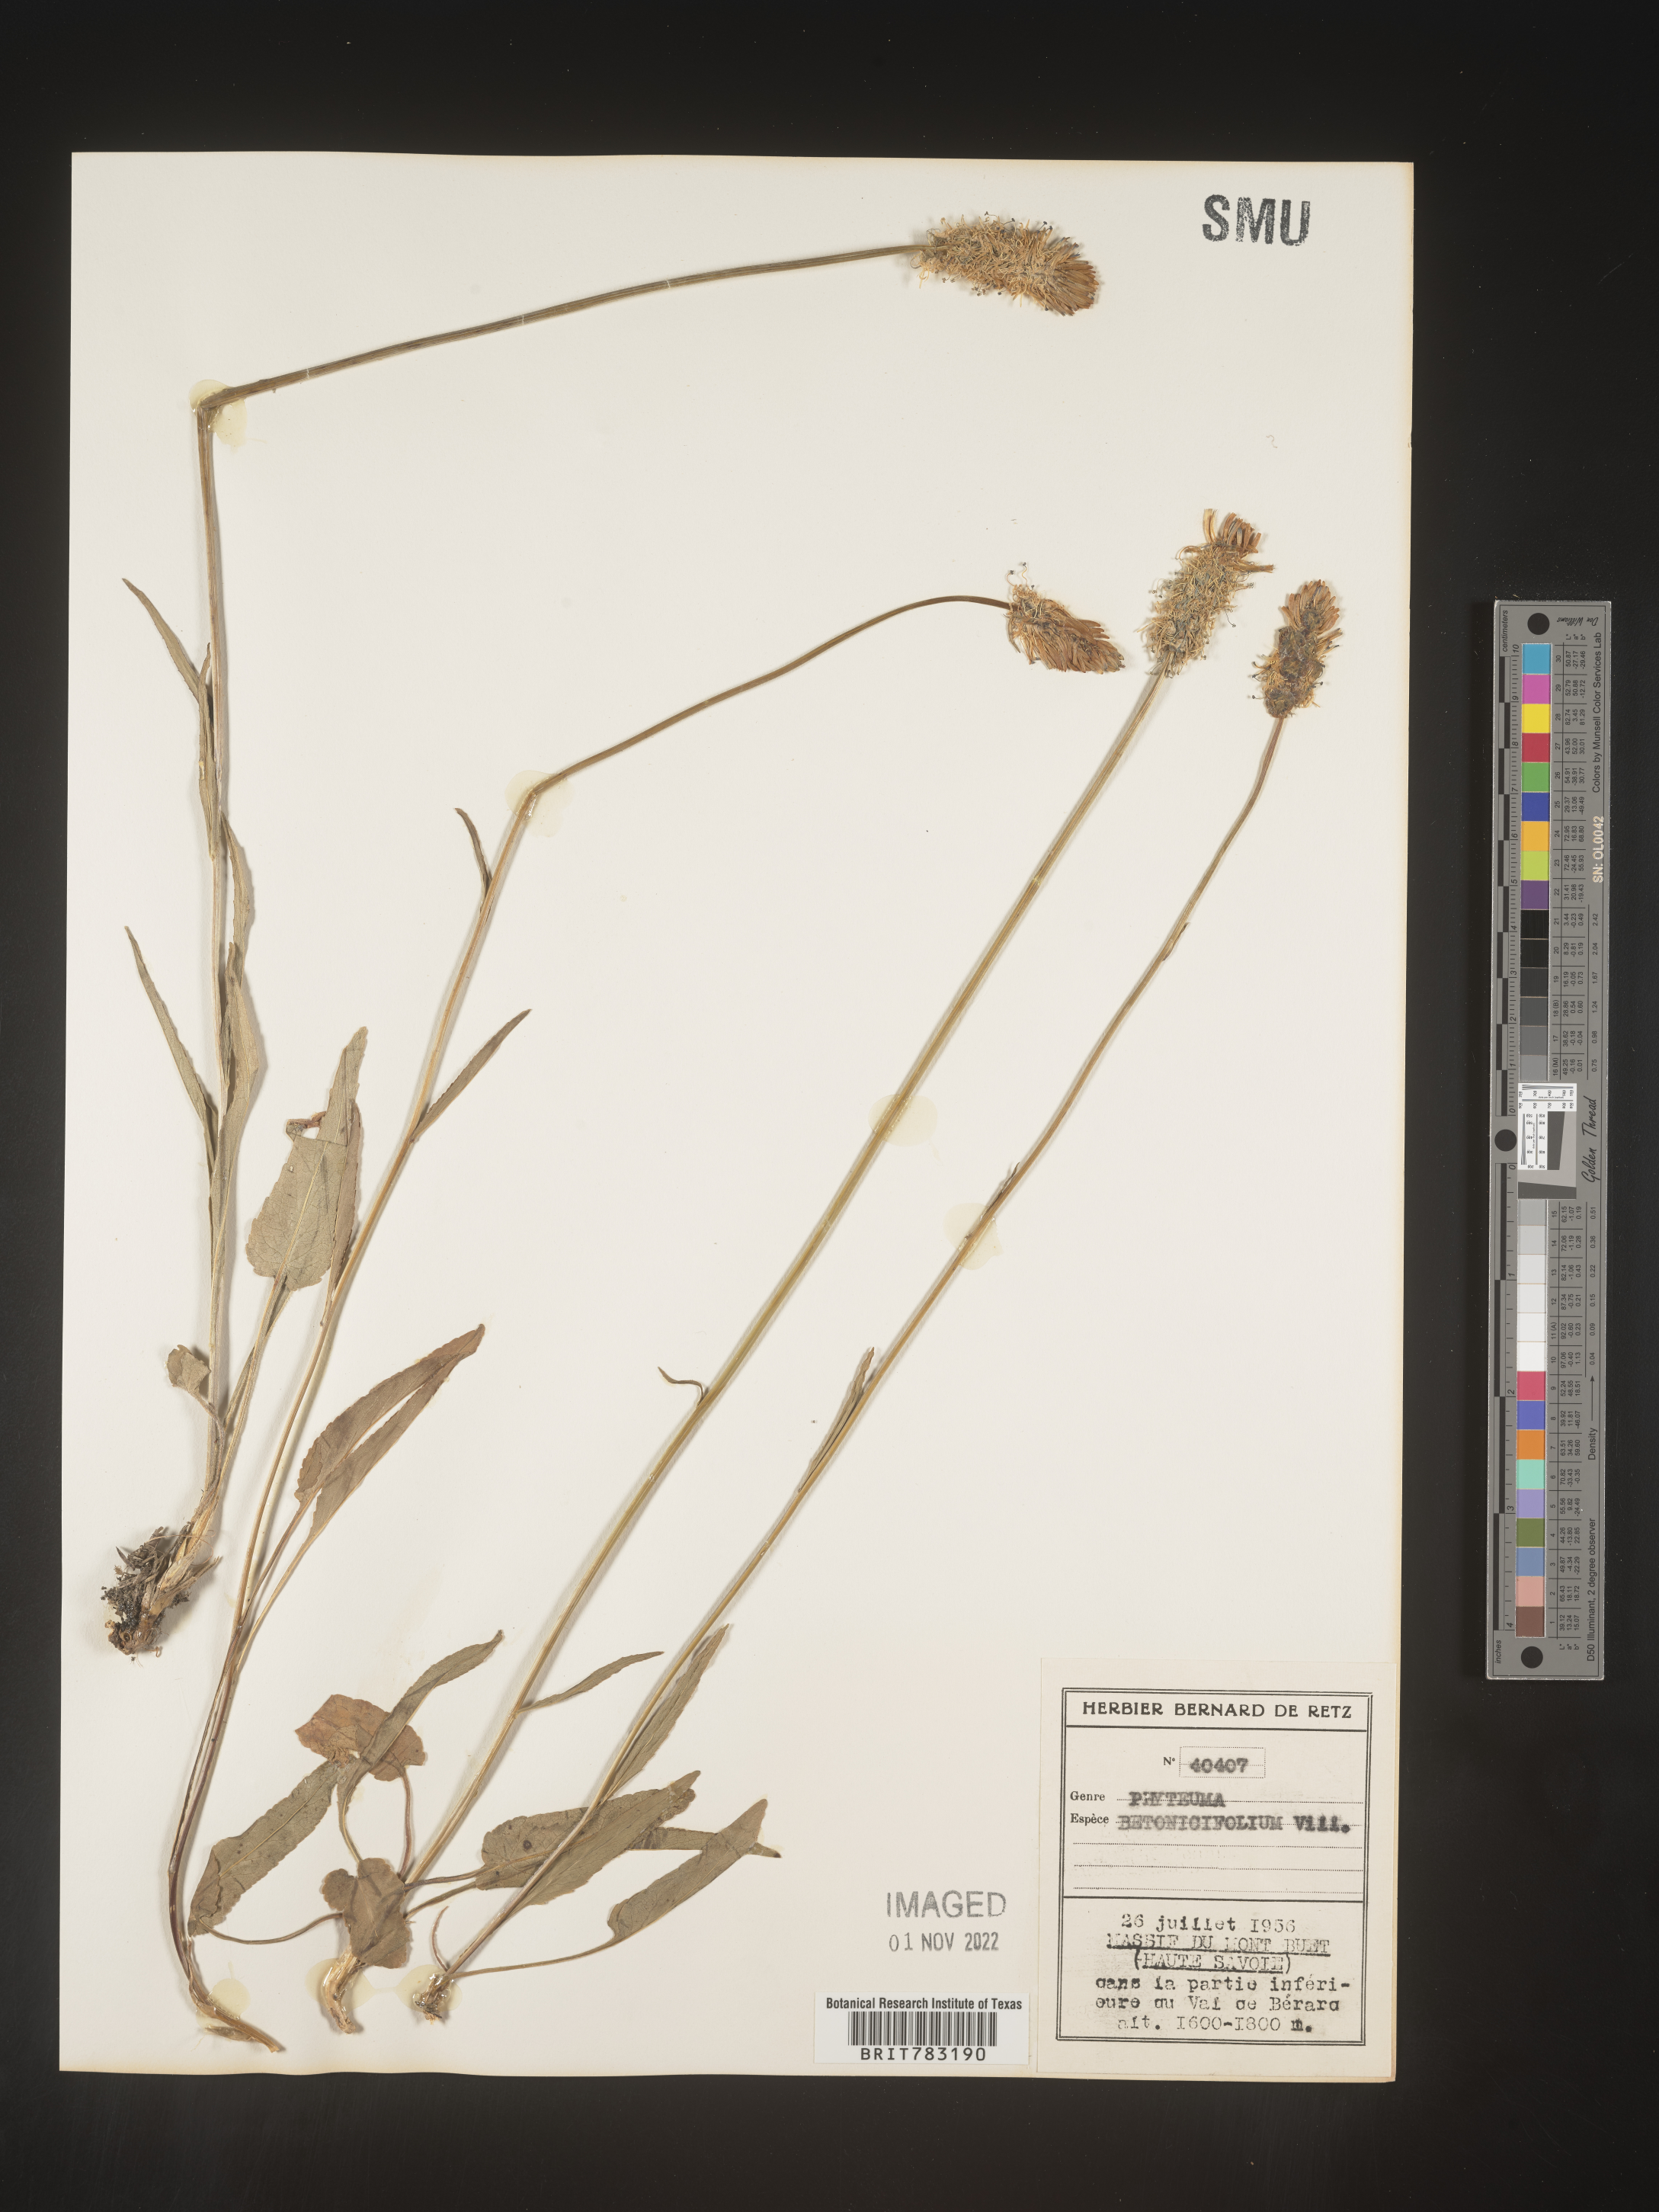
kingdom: Plantae
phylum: Tracheophyta
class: Magnoliopsida
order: Asterales
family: Campanulaceae
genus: Phyteuma
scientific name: Phyteuma
